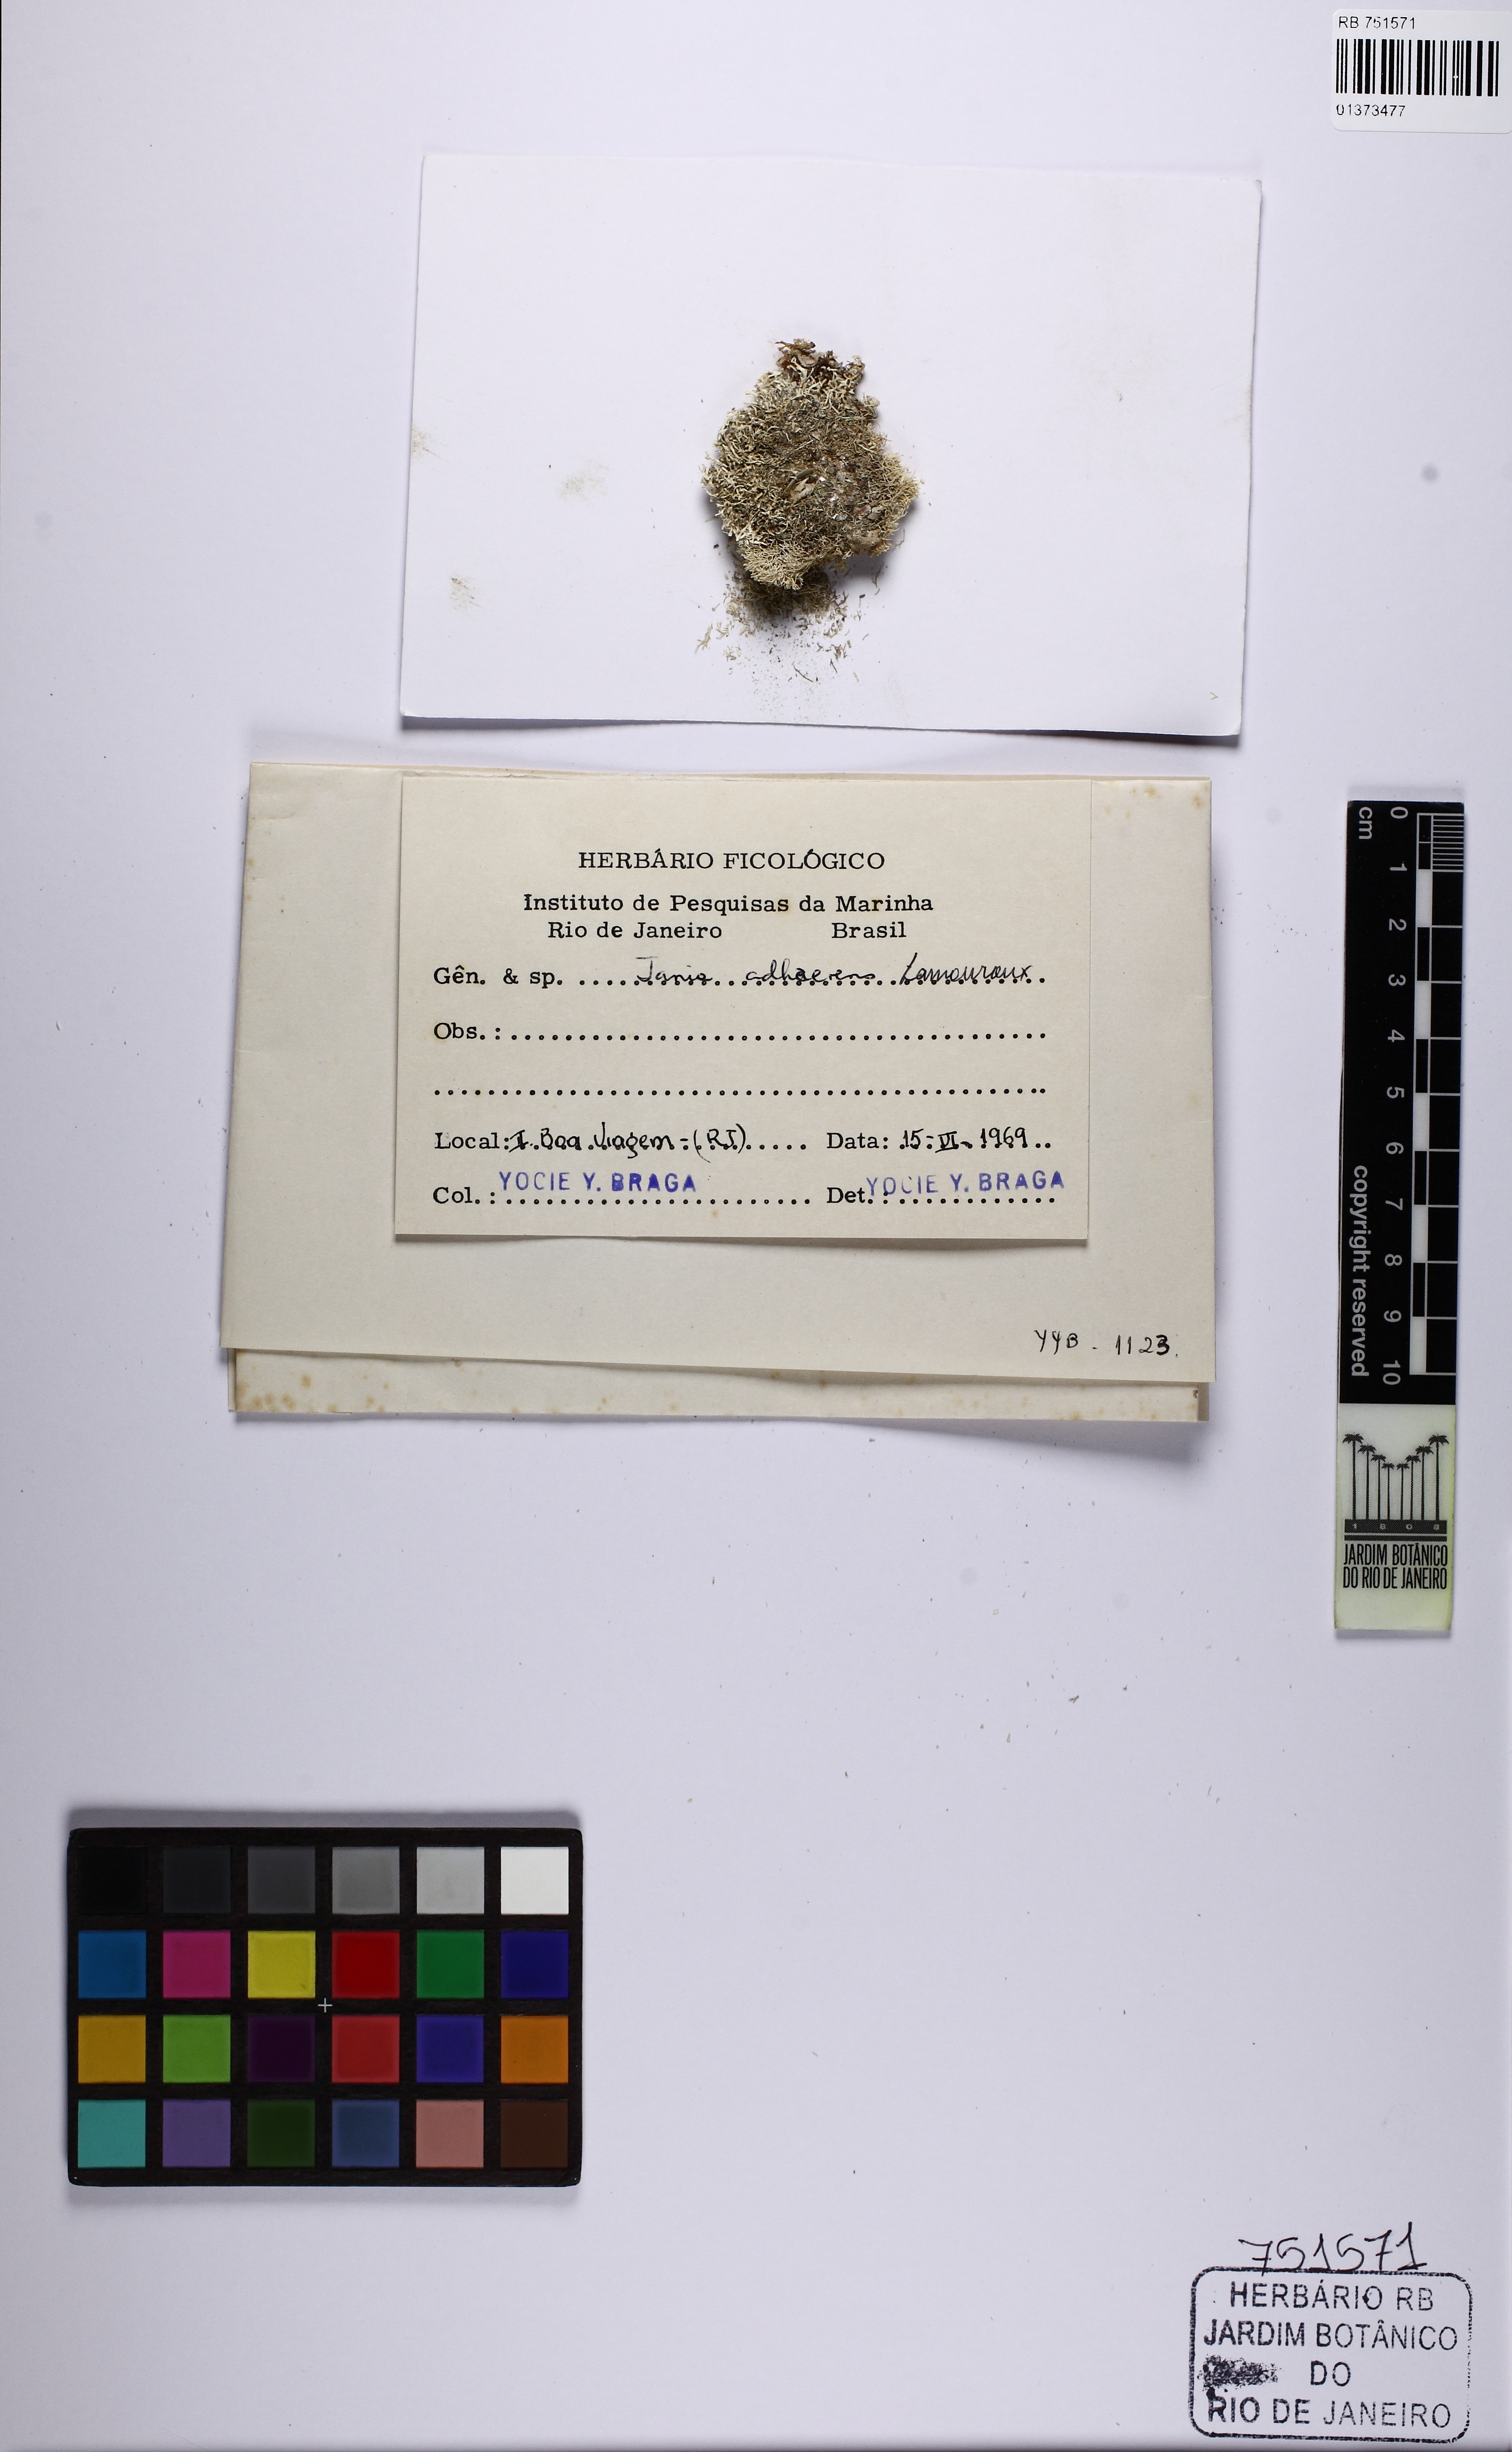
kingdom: Plantae
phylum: Rhodophyta
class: Florideophyceae
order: Corallinales
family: Corallinaceae
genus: Jania
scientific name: Jania adhaerens
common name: Pink segmented algae
